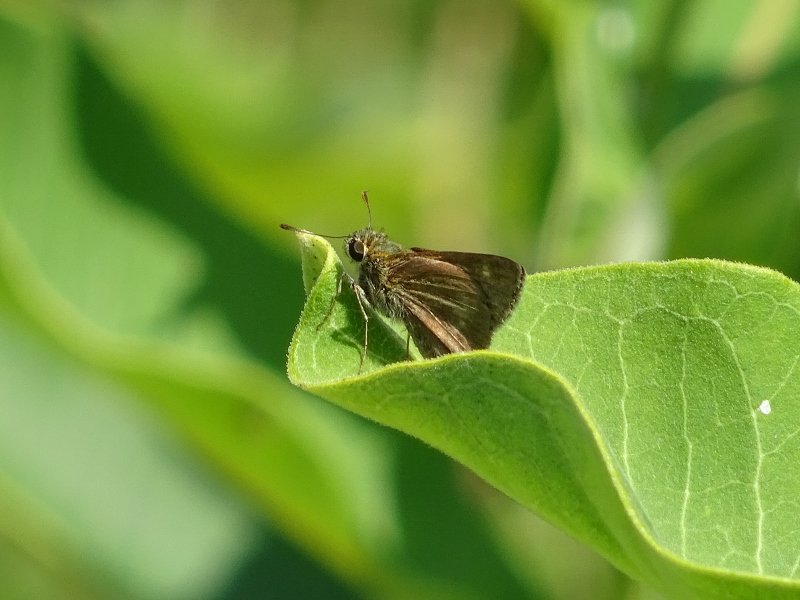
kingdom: Animalia
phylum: Arthropoda
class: Insecta
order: Lepidoptera
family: Hesperiidae
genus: Polites
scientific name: Polites egeremet
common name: Northern Broken-Dash
